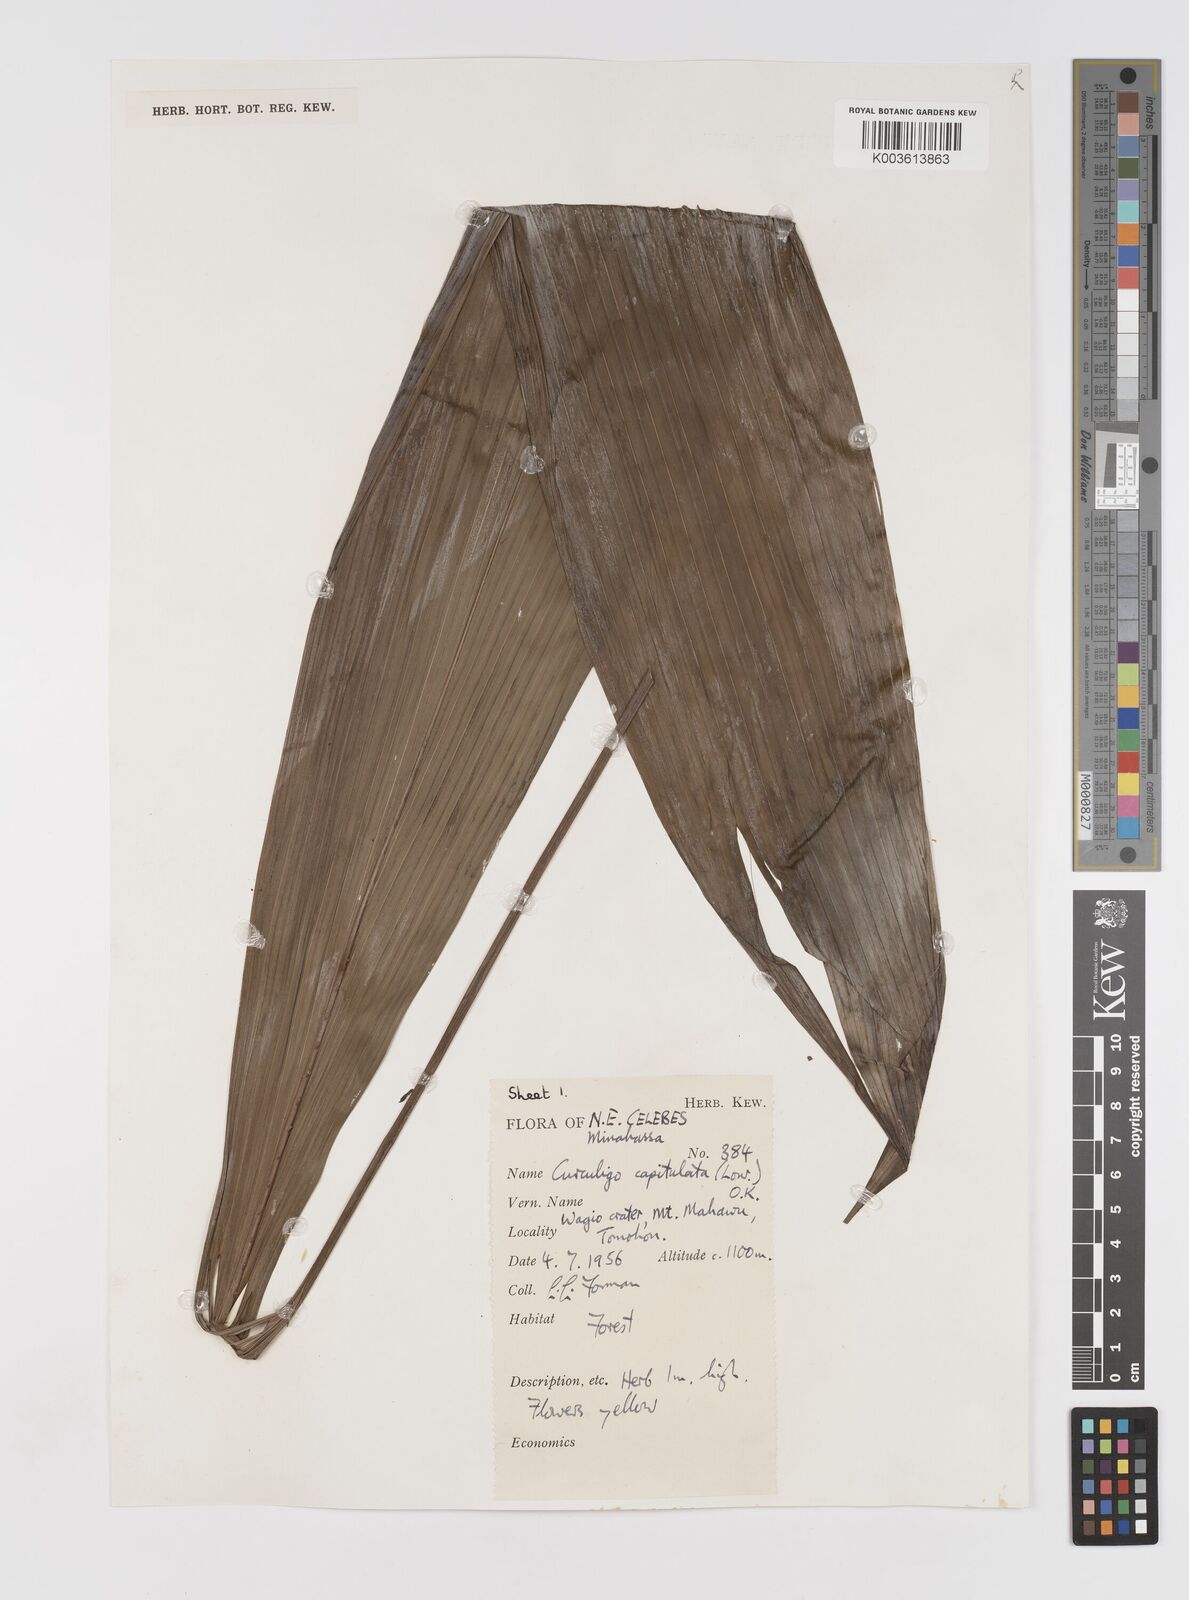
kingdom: Plantae
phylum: Tracheophyta
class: Liliopsida
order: Asparagales
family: Hypoxidaceae
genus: Curculigo
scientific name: Curculigo capitulata
